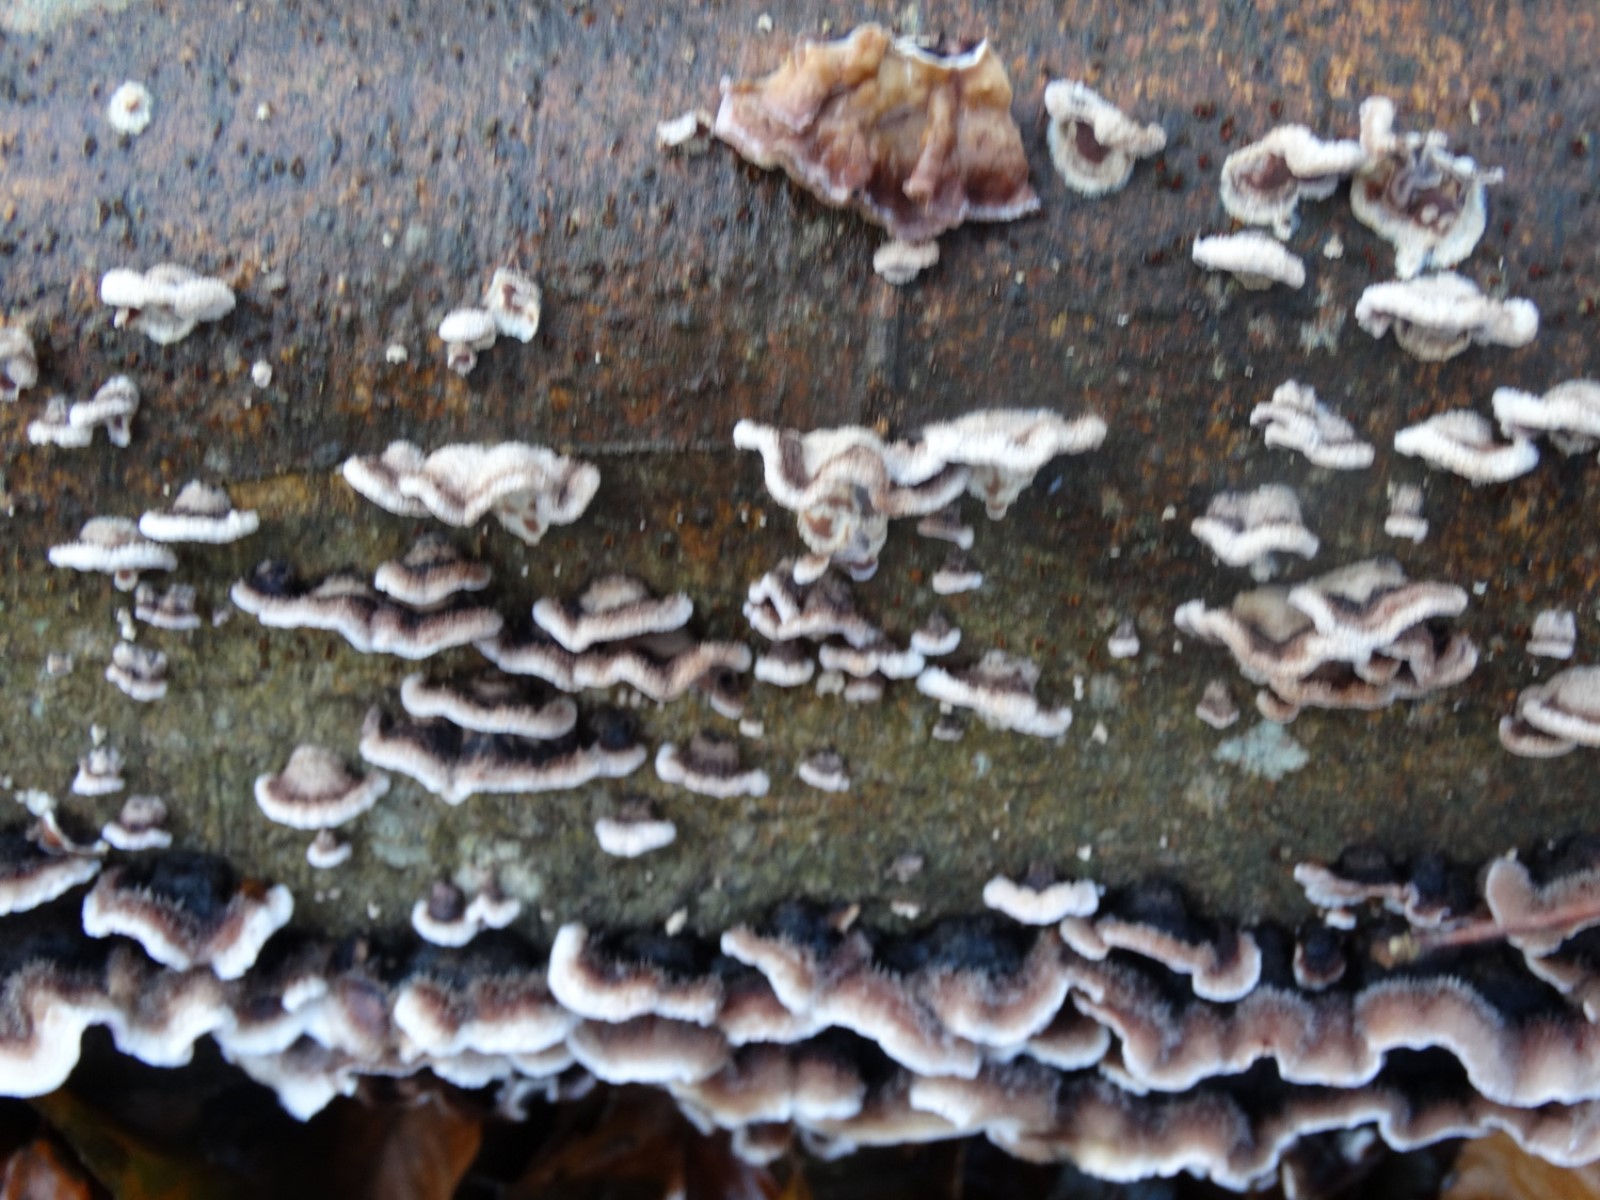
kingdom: Fungi
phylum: Basidiomycota
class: Agaricomycetes
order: Agaricales
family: Cyphellaceae
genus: Chondrostereum
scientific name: Chondrostereum purpureum
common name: purpurlædersvamp
